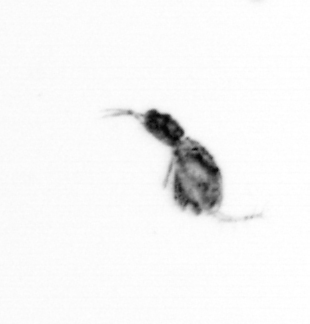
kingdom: Animalia
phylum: Arthropoda
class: Copepoda
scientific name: Copepoda
